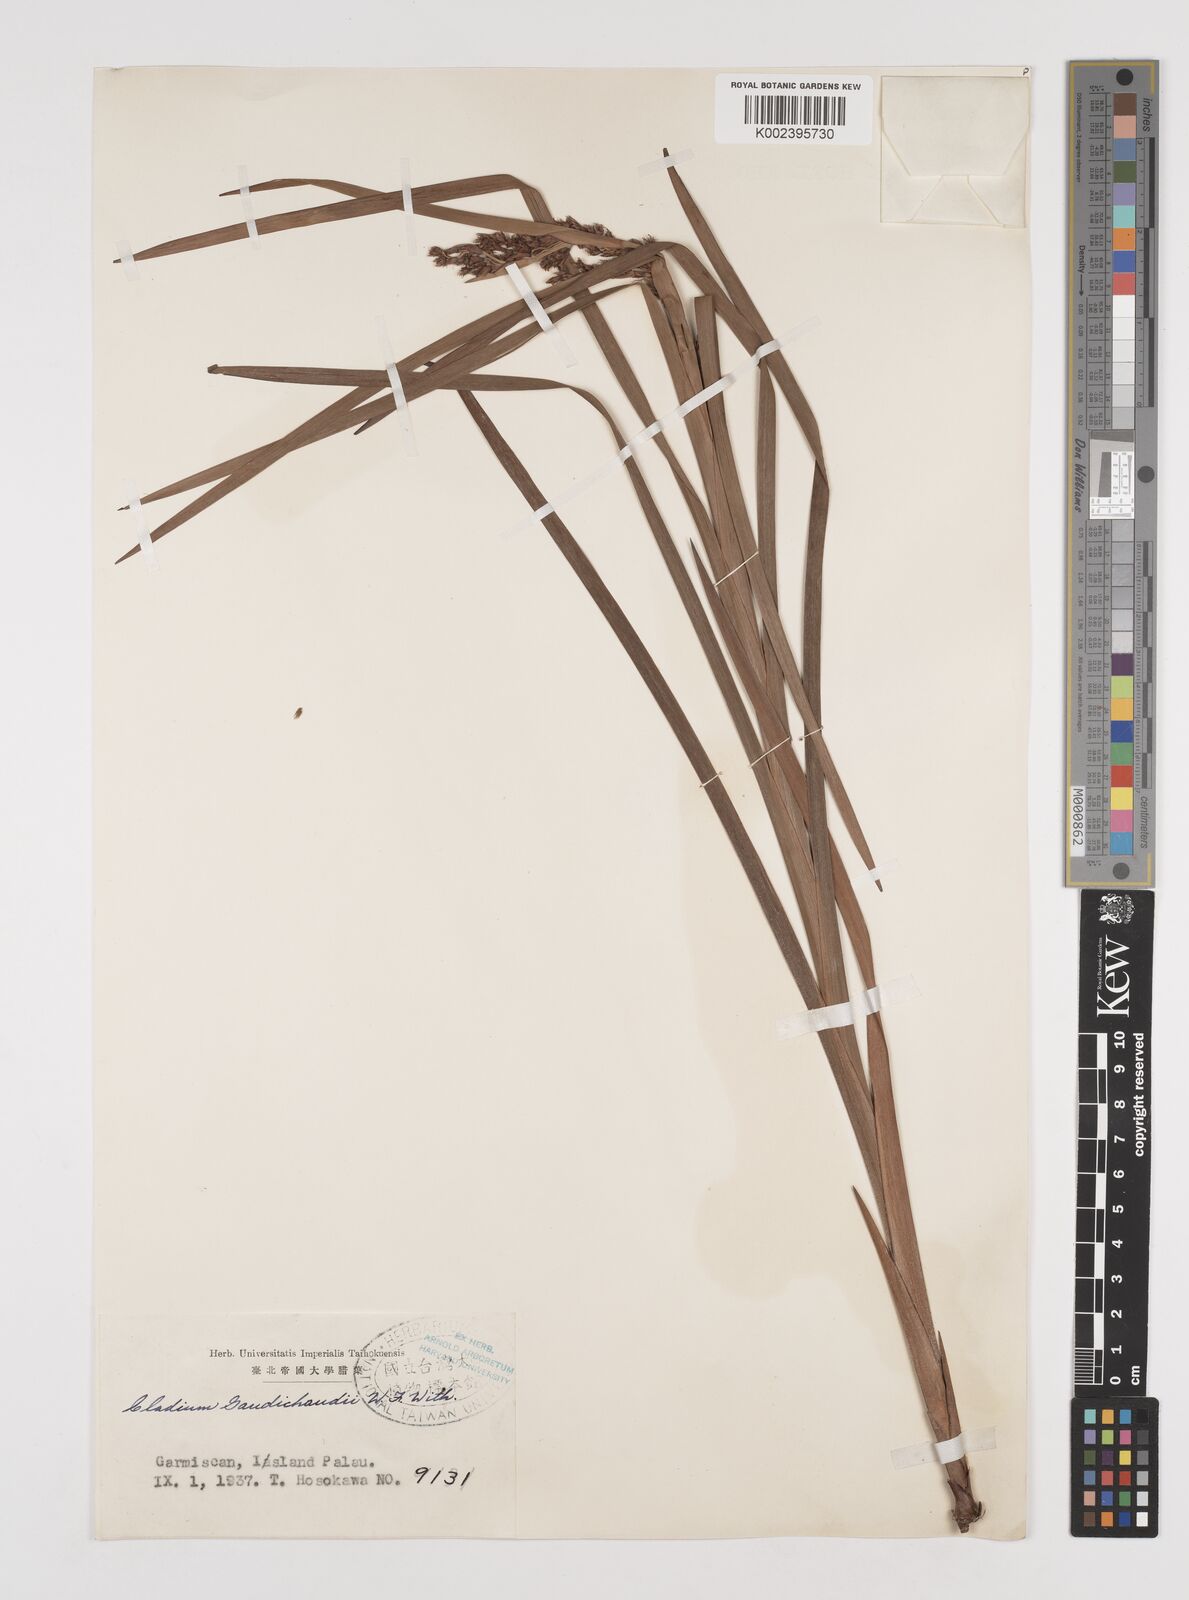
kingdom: Plantae
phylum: Tracheophyta
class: Liliopsida
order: Poales
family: Cyperaceae
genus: Machaerina
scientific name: Machaerina mariscoides
